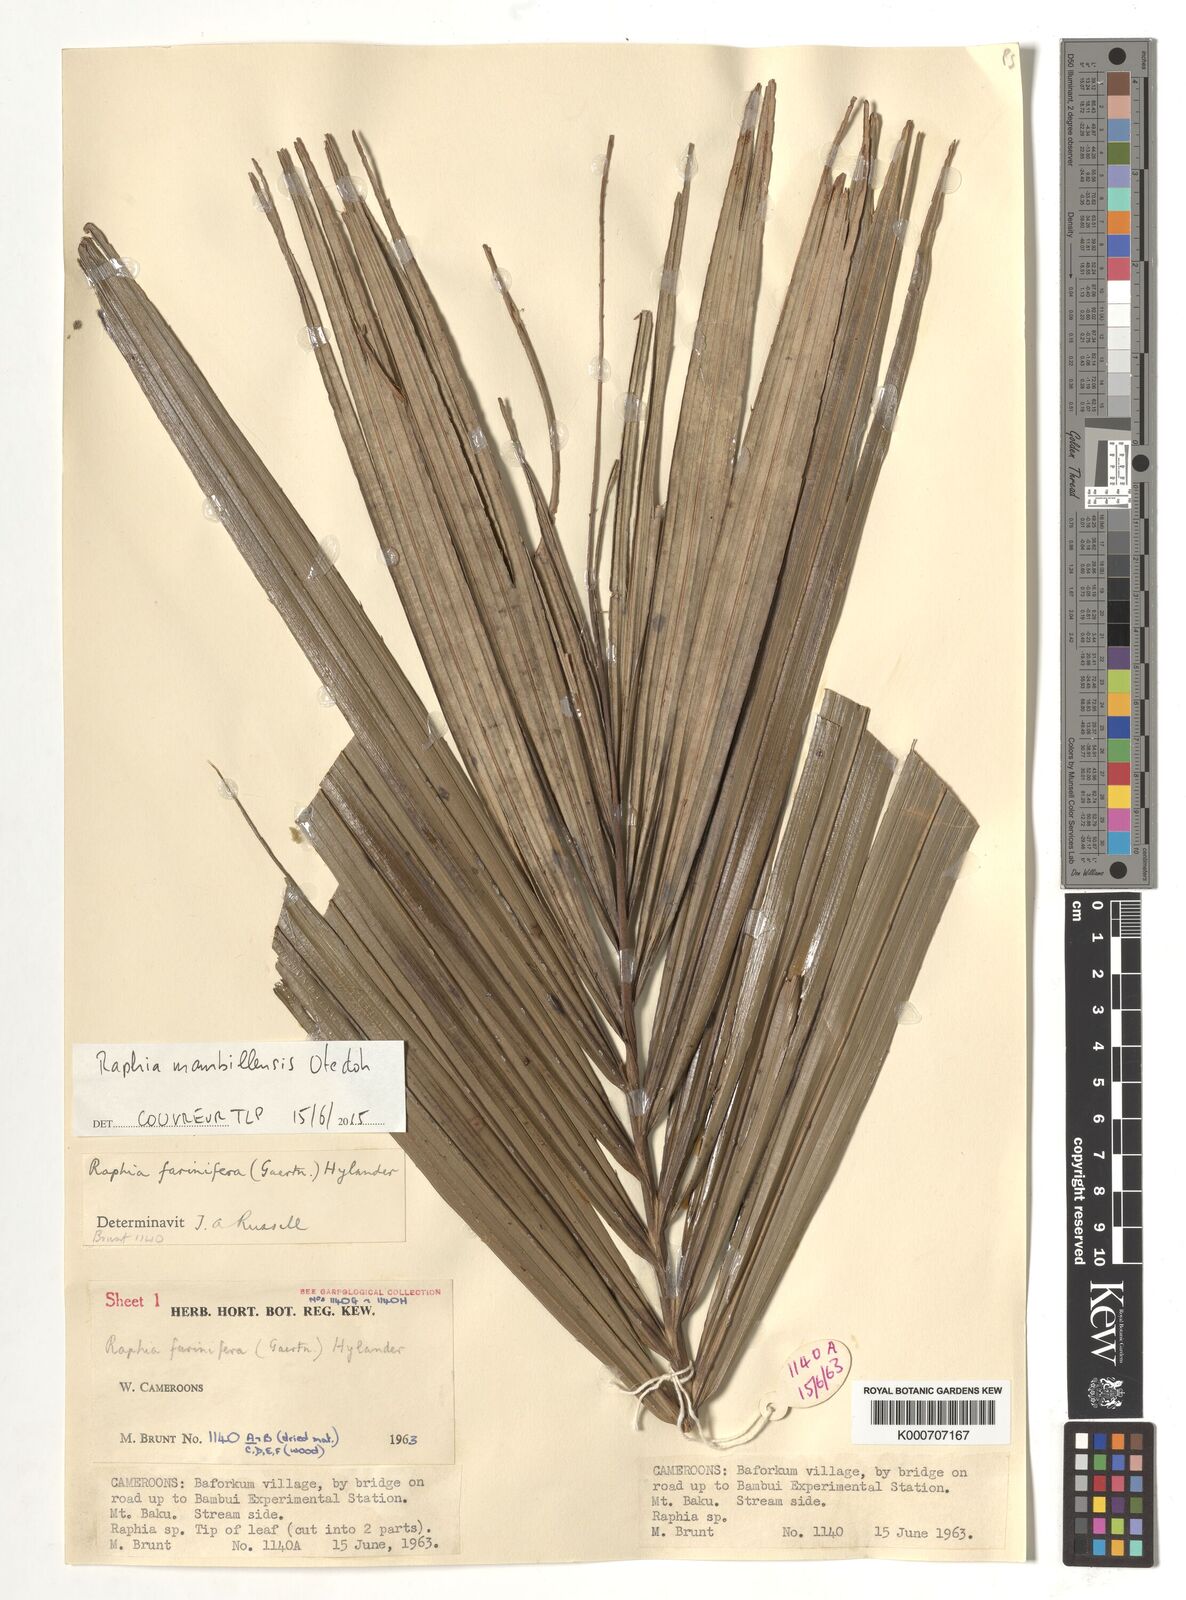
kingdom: Plantae
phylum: Tracheophyta
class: Liliopsida
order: Arecales
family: Arecaceae
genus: Raphia
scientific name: Raphia farinifera
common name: Raphia palm
